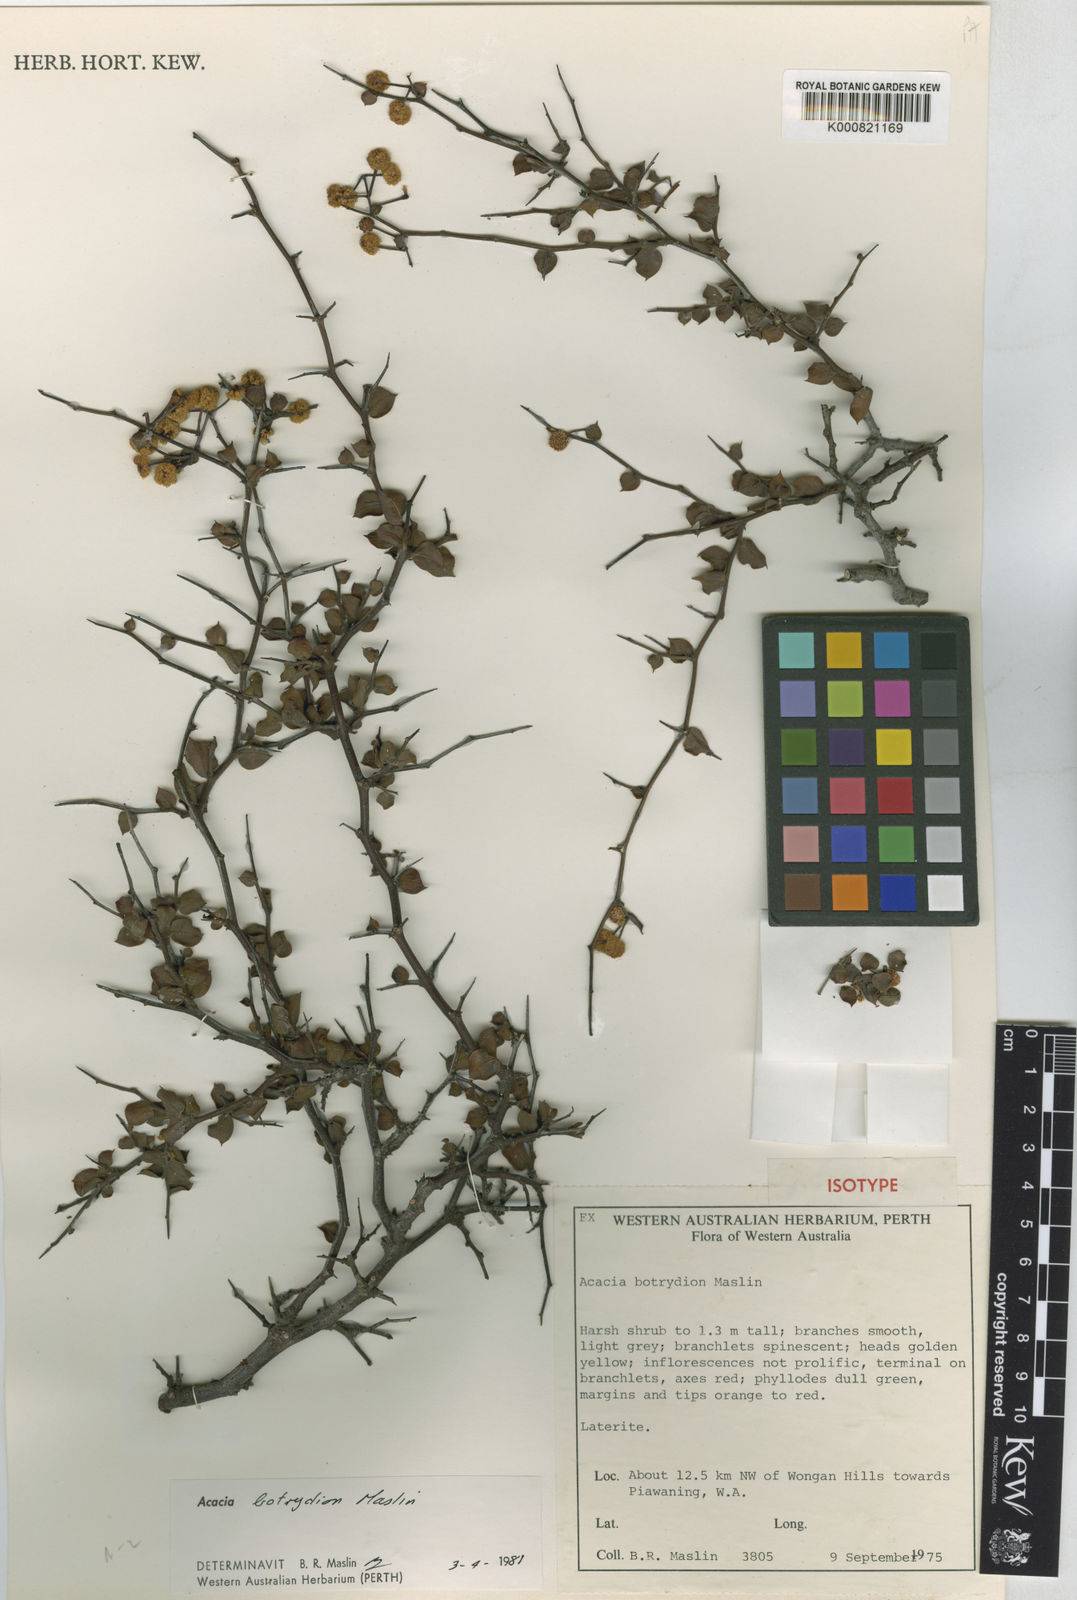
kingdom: Plantae
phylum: Tracheophyta
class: Magnoliopsida
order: Fabales
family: Fabaceae
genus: Acacia
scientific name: Acacia botrydion
